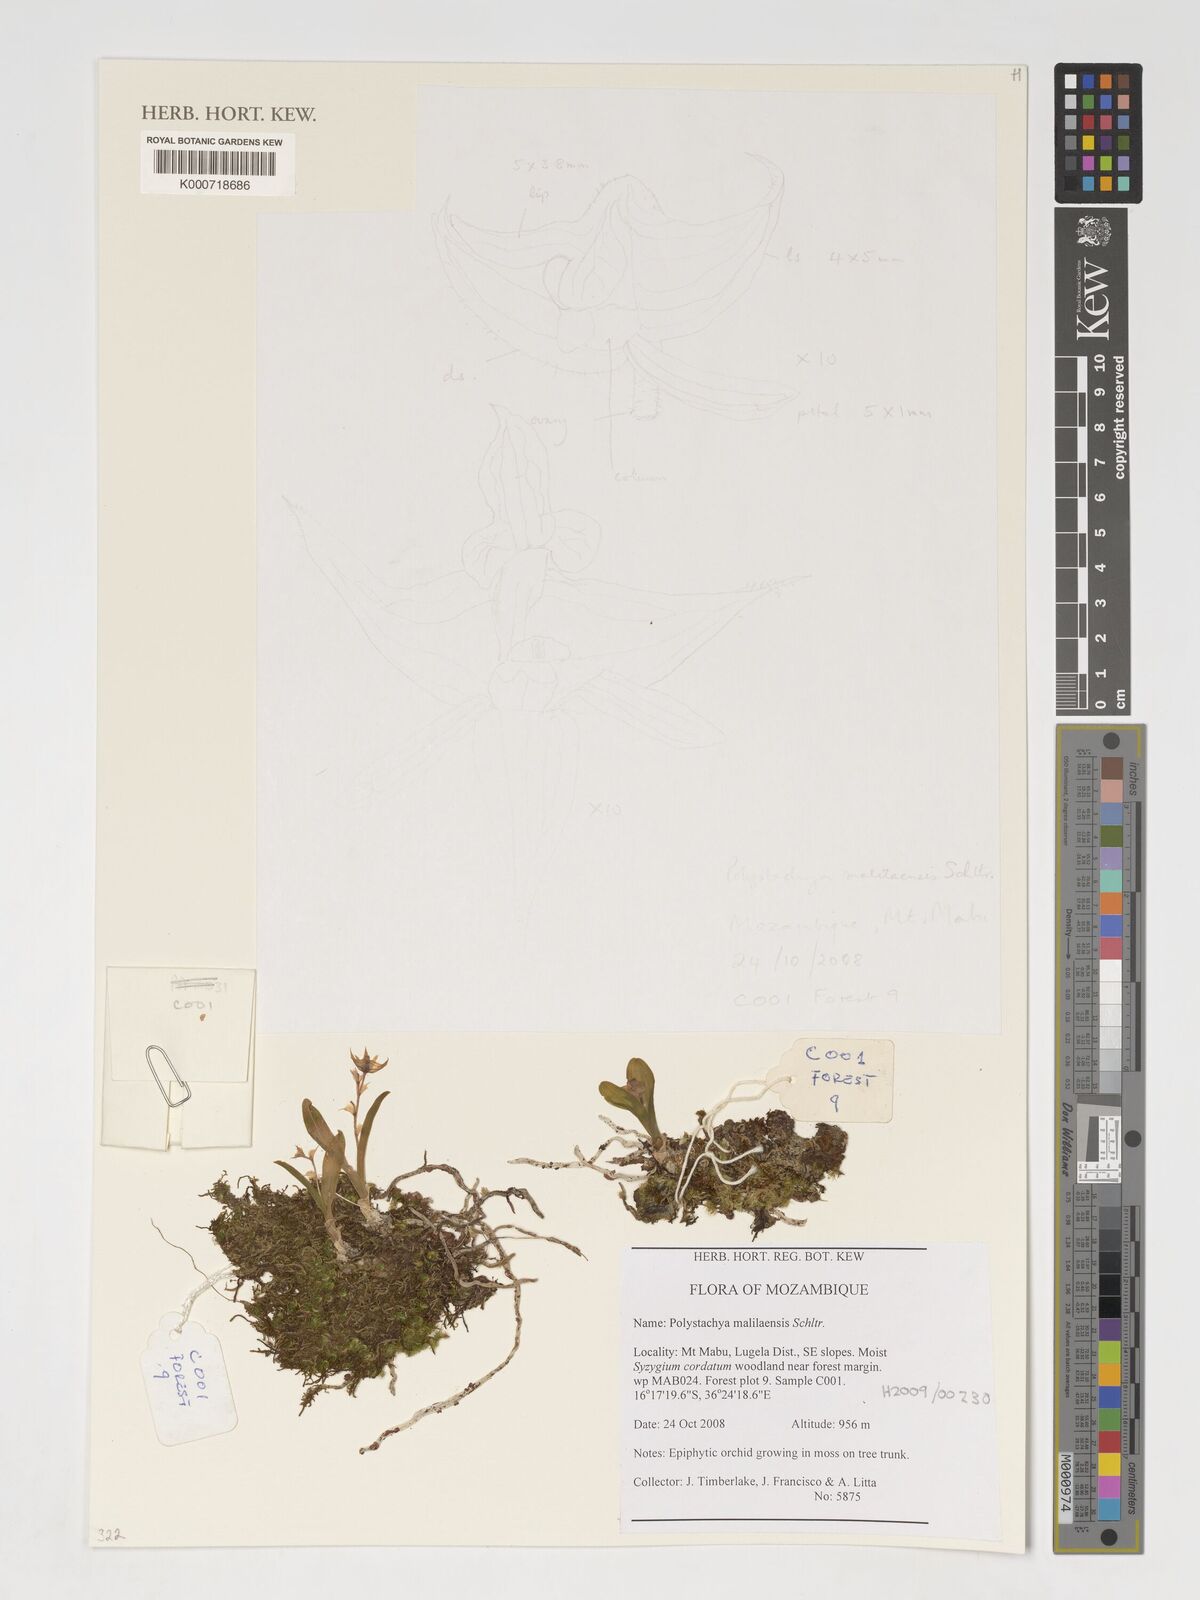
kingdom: Plantae
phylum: Tracheophyta
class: Liliopsida
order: Asparagales
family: Orchidaceae
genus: Polystachya
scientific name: Polystachya malilaensis
